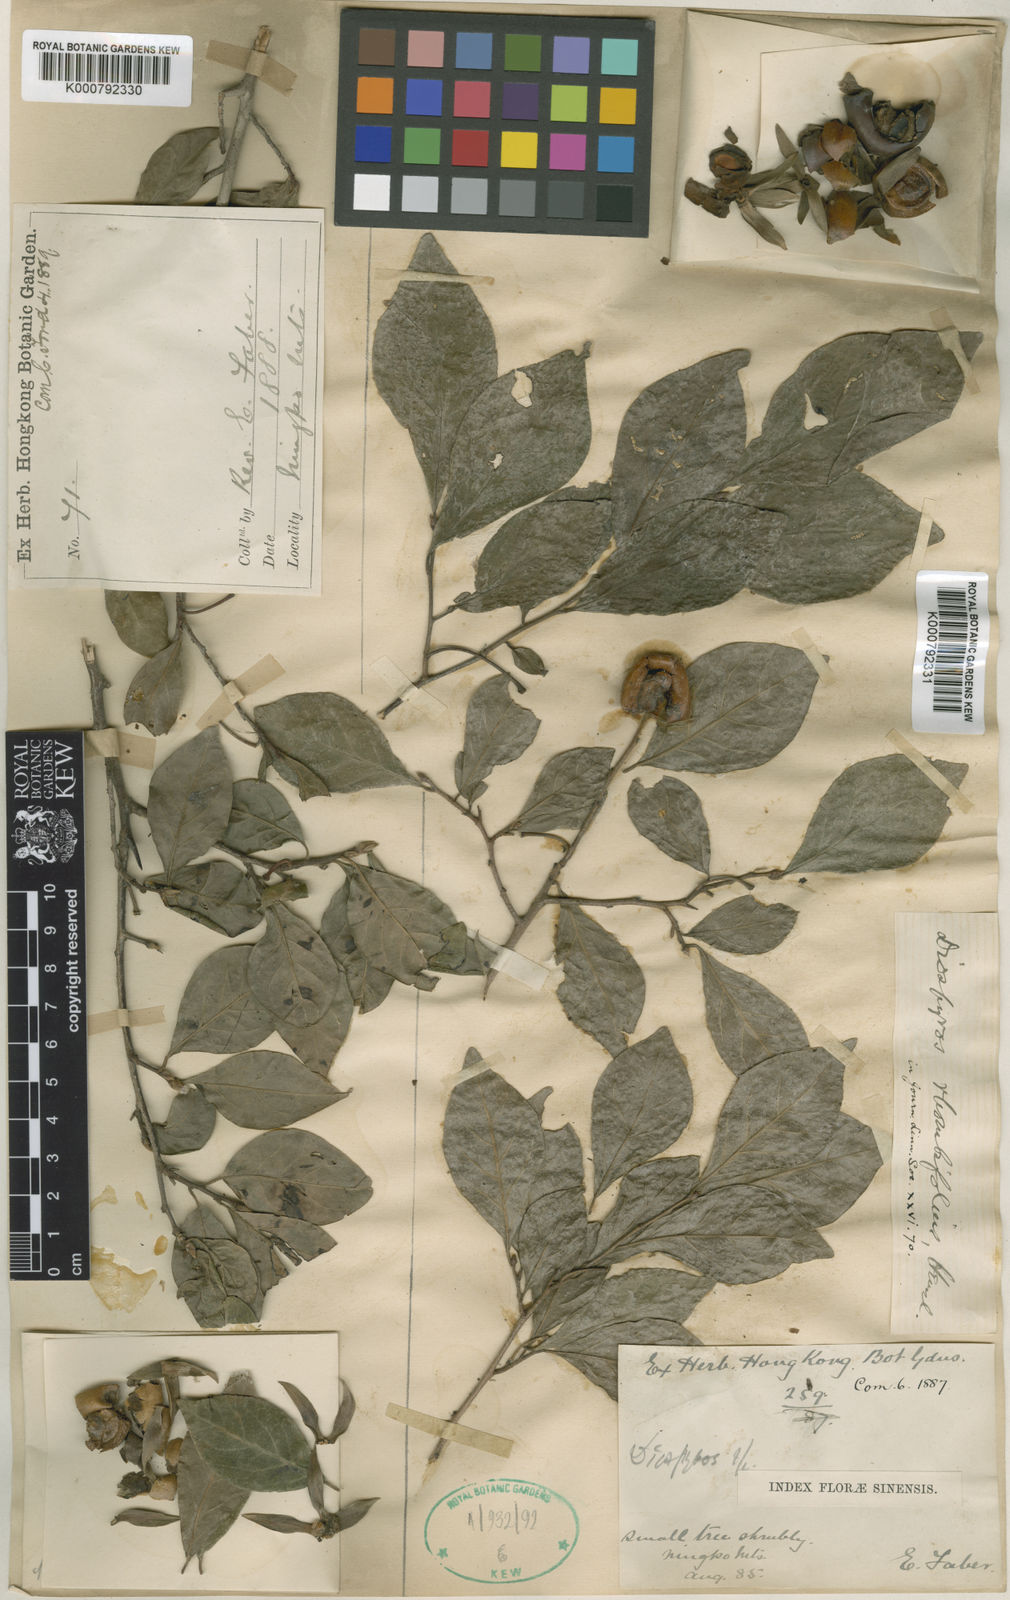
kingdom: Plantae
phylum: Tracheophyta
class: Magnoliopsida
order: Ericales
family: Ebenaceae
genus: Diospyros
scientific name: Diospyros rhombifolia
